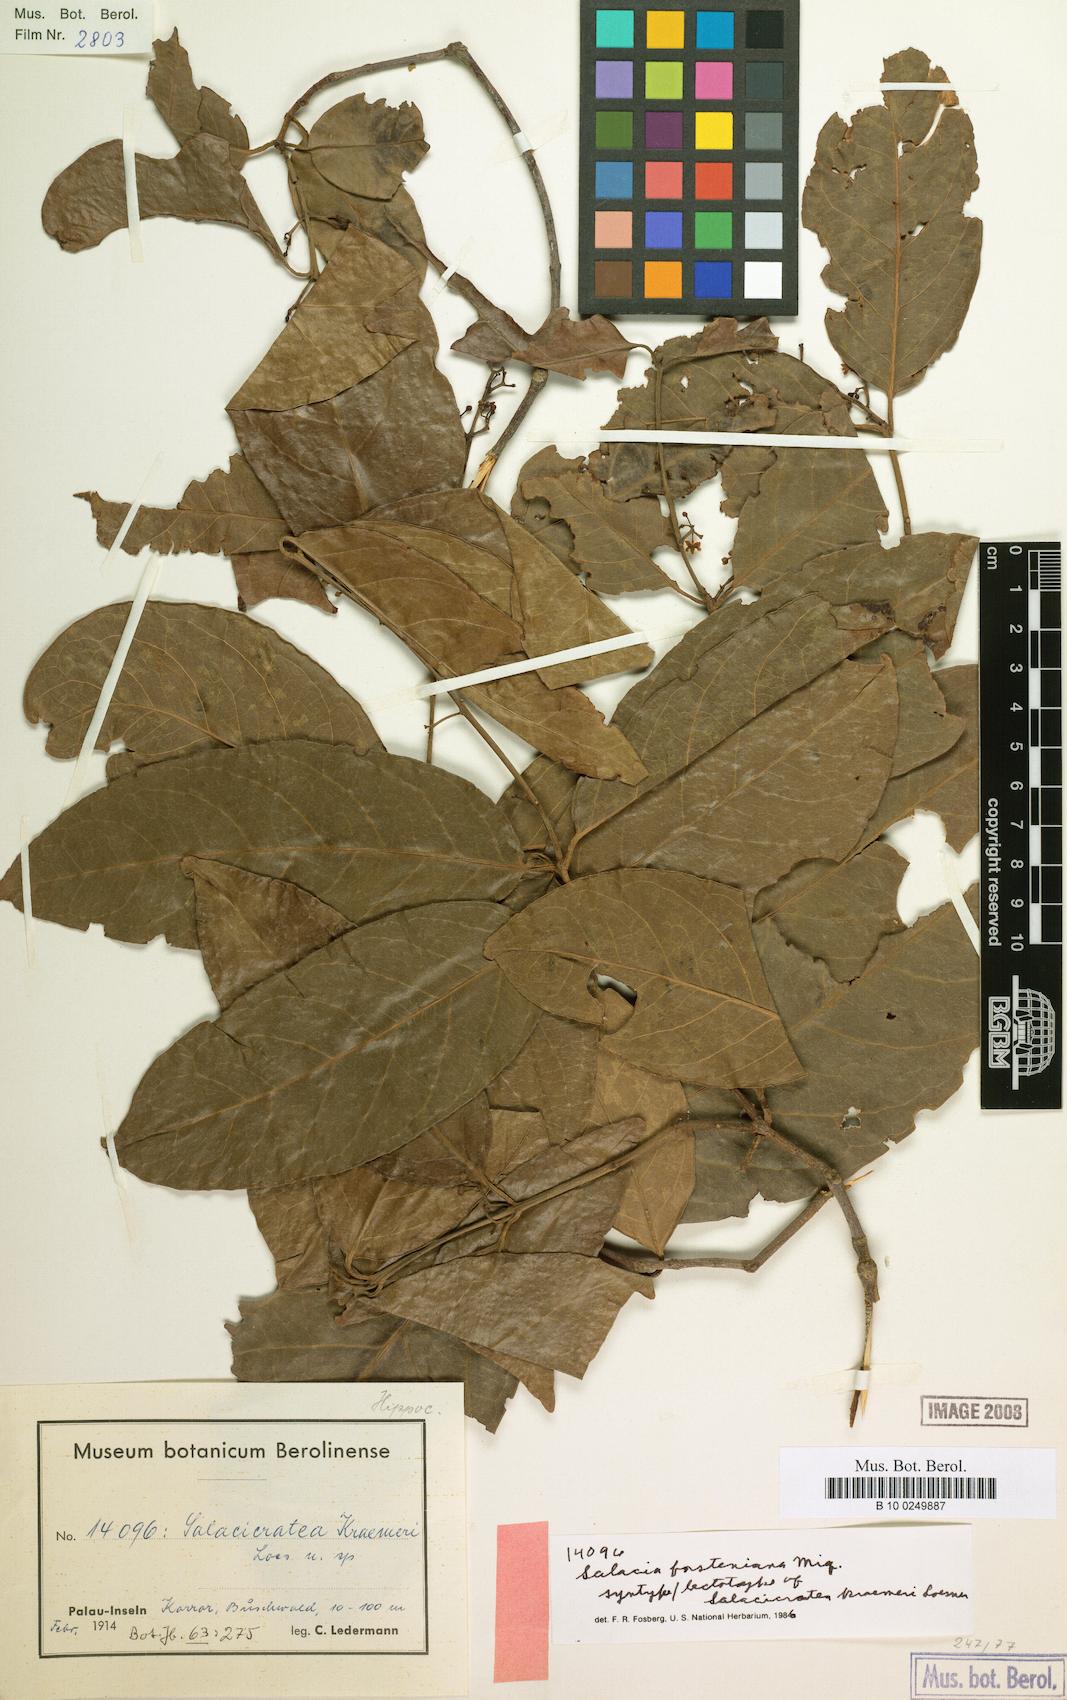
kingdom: Plantae
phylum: Tracheophyta
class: Magnoliopsida
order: Celastrales
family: Celastraceae
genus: Salacia
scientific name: Salacia forsteniana
